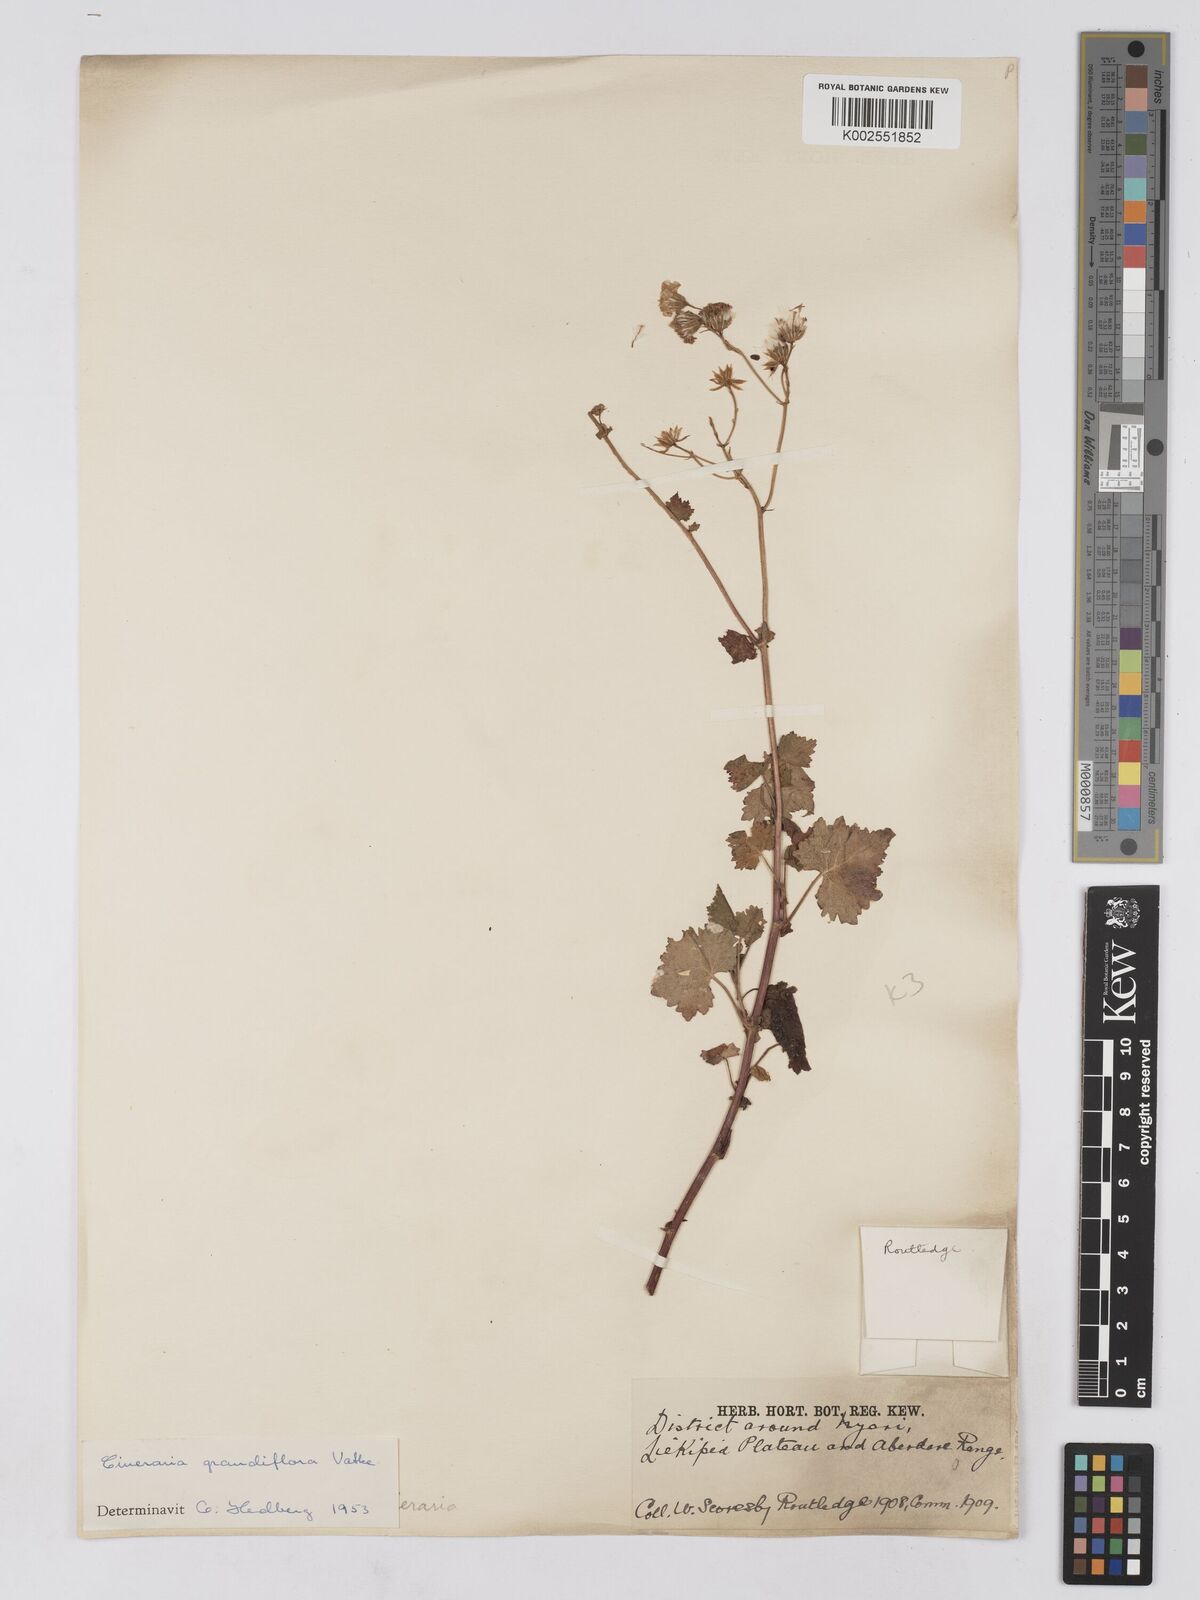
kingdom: Plantae
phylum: Tracheophyta
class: Magnoliopsida
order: Asterales
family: Asteraceae
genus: Cineraria
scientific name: Cineraria deltoidea
